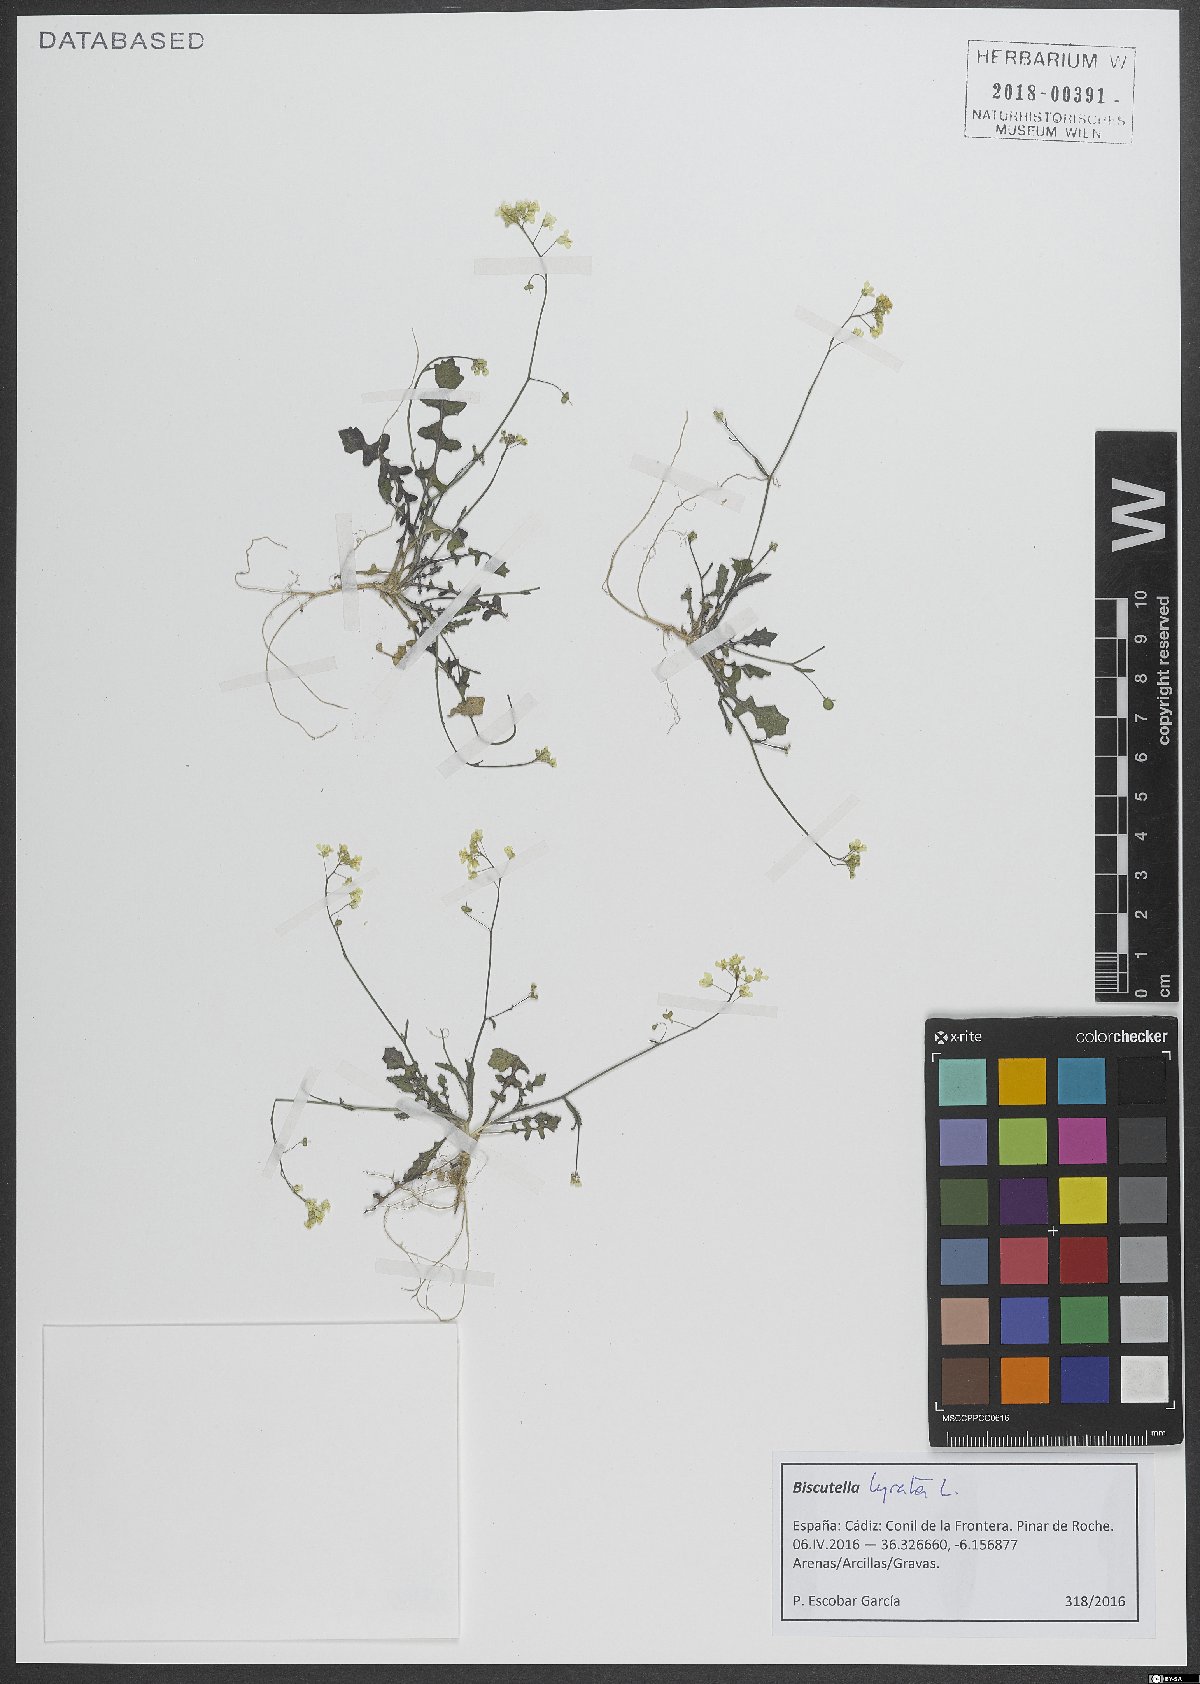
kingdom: Plantae
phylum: Tracheophyta
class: Magnoliopsida
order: Brassicales
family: Brassicaceae
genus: Biscutella
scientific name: Biscutella lyrata
